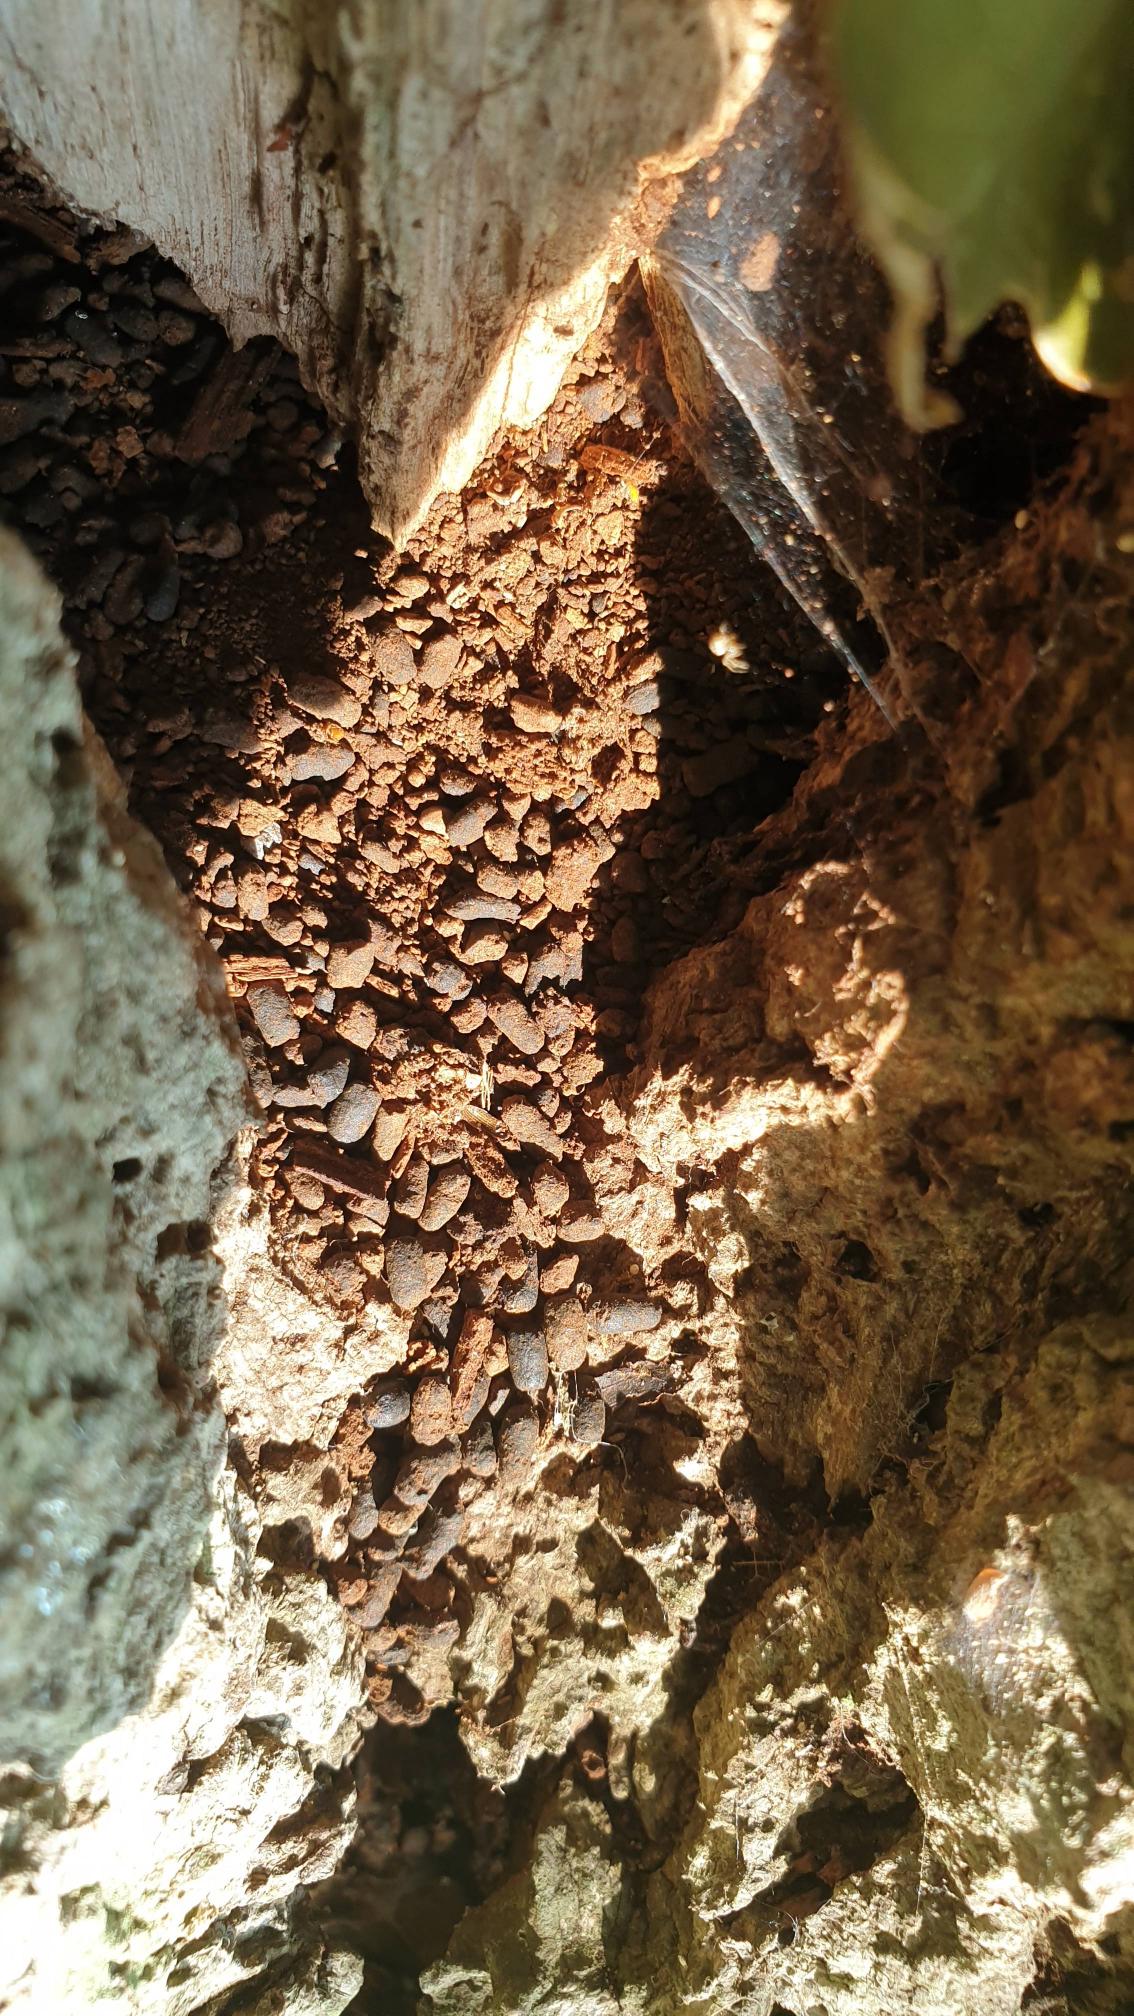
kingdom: Animalia
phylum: Arthropoda
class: Insecta
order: Coleoptera
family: Scarabaeidae
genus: Osmoderma
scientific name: Osmoderma eremita
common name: Eremit
